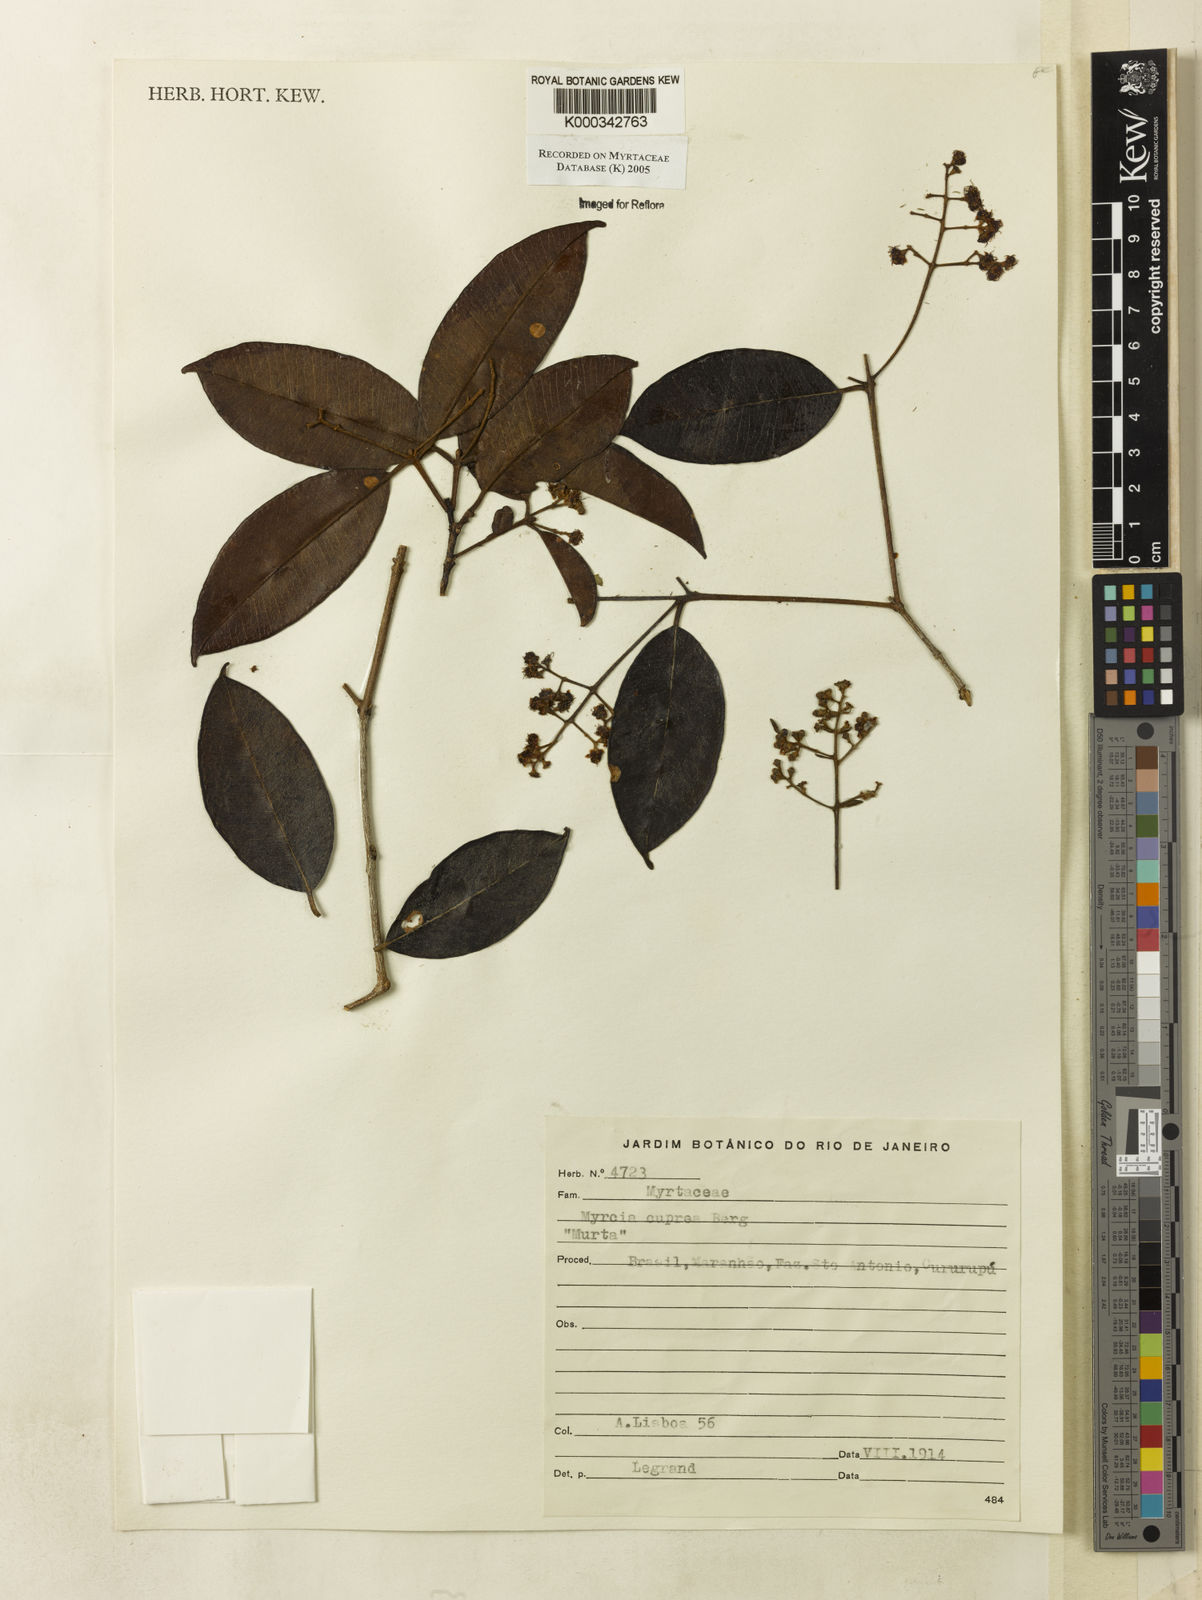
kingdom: Plantae
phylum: Tracheophyta
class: Magnoliopsida
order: Myrtales
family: Myrtaceae
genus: Myrcia
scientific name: Myrcia cuprea
